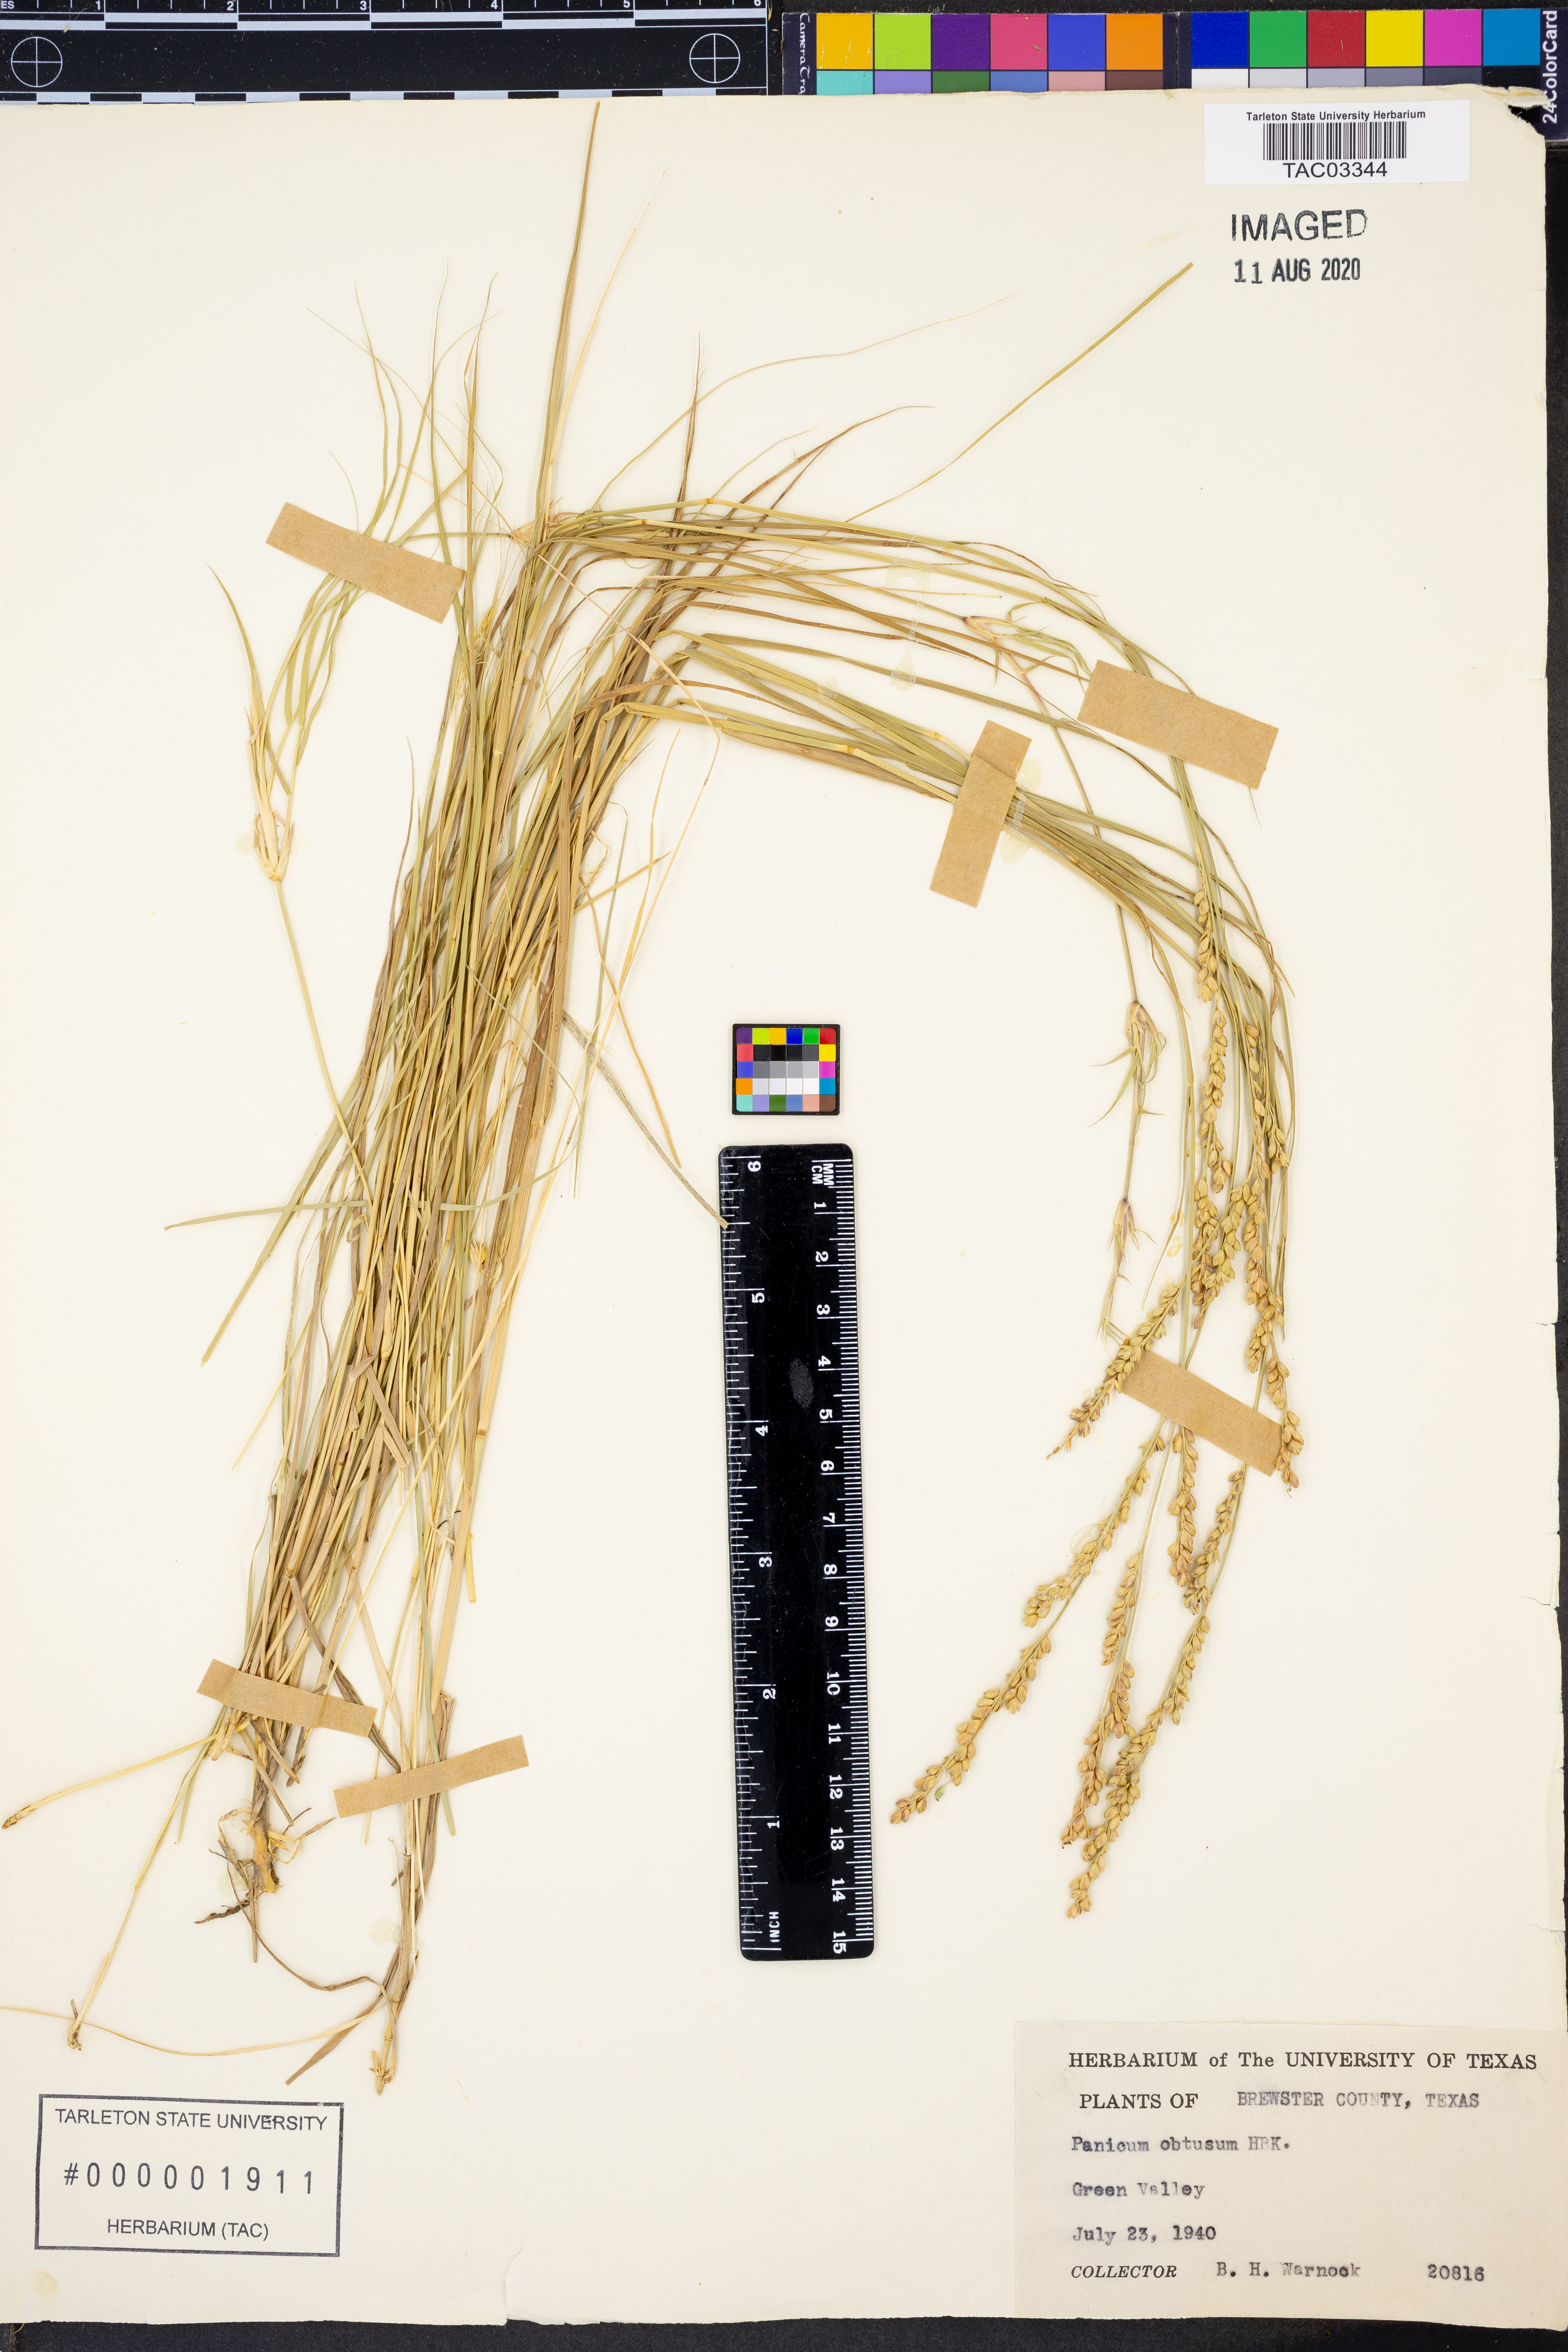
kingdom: Plantae
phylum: Tracheophyta
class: Liliopsida
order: Poales
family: Poaceae
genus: Hopia
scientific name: Hopia obtusa
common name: Vine-mesquite
